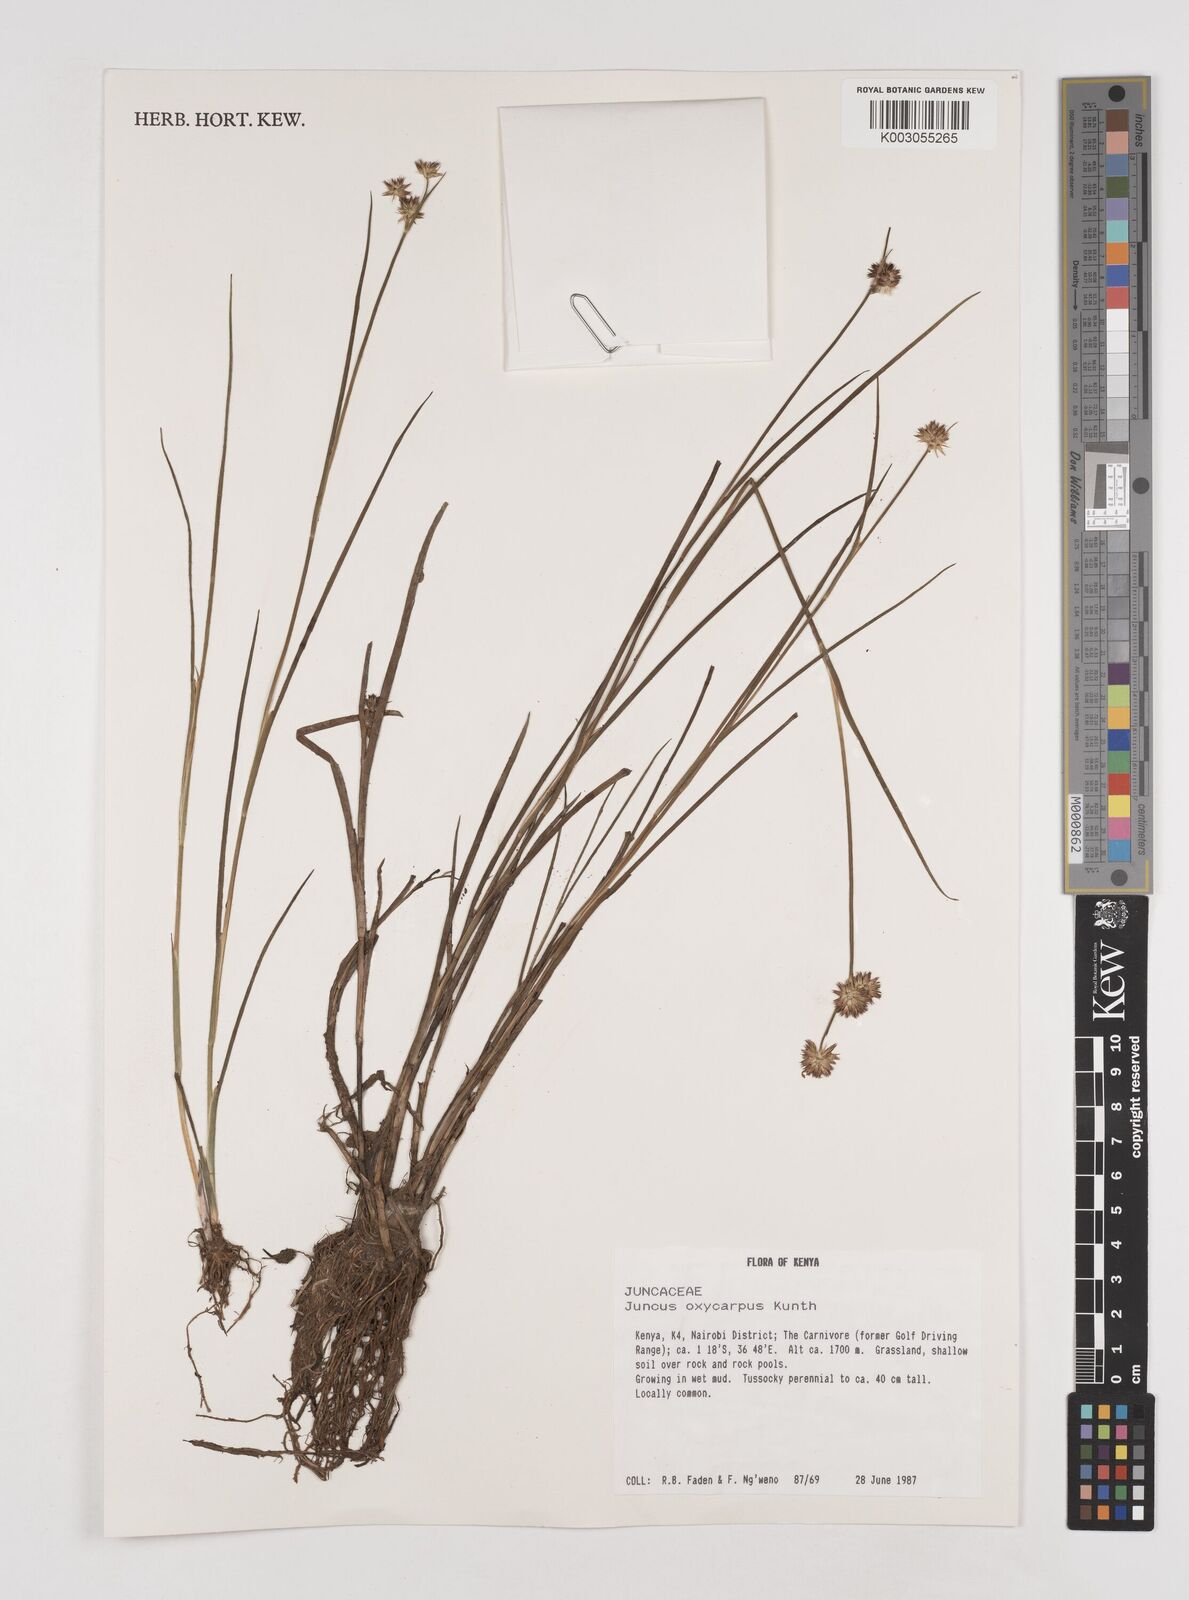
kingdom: Plantae
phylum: Tracheophyta
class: Liliopsida
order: Poales
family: Juncaceae
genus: Juncus
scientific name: Juncus oxycarpus
